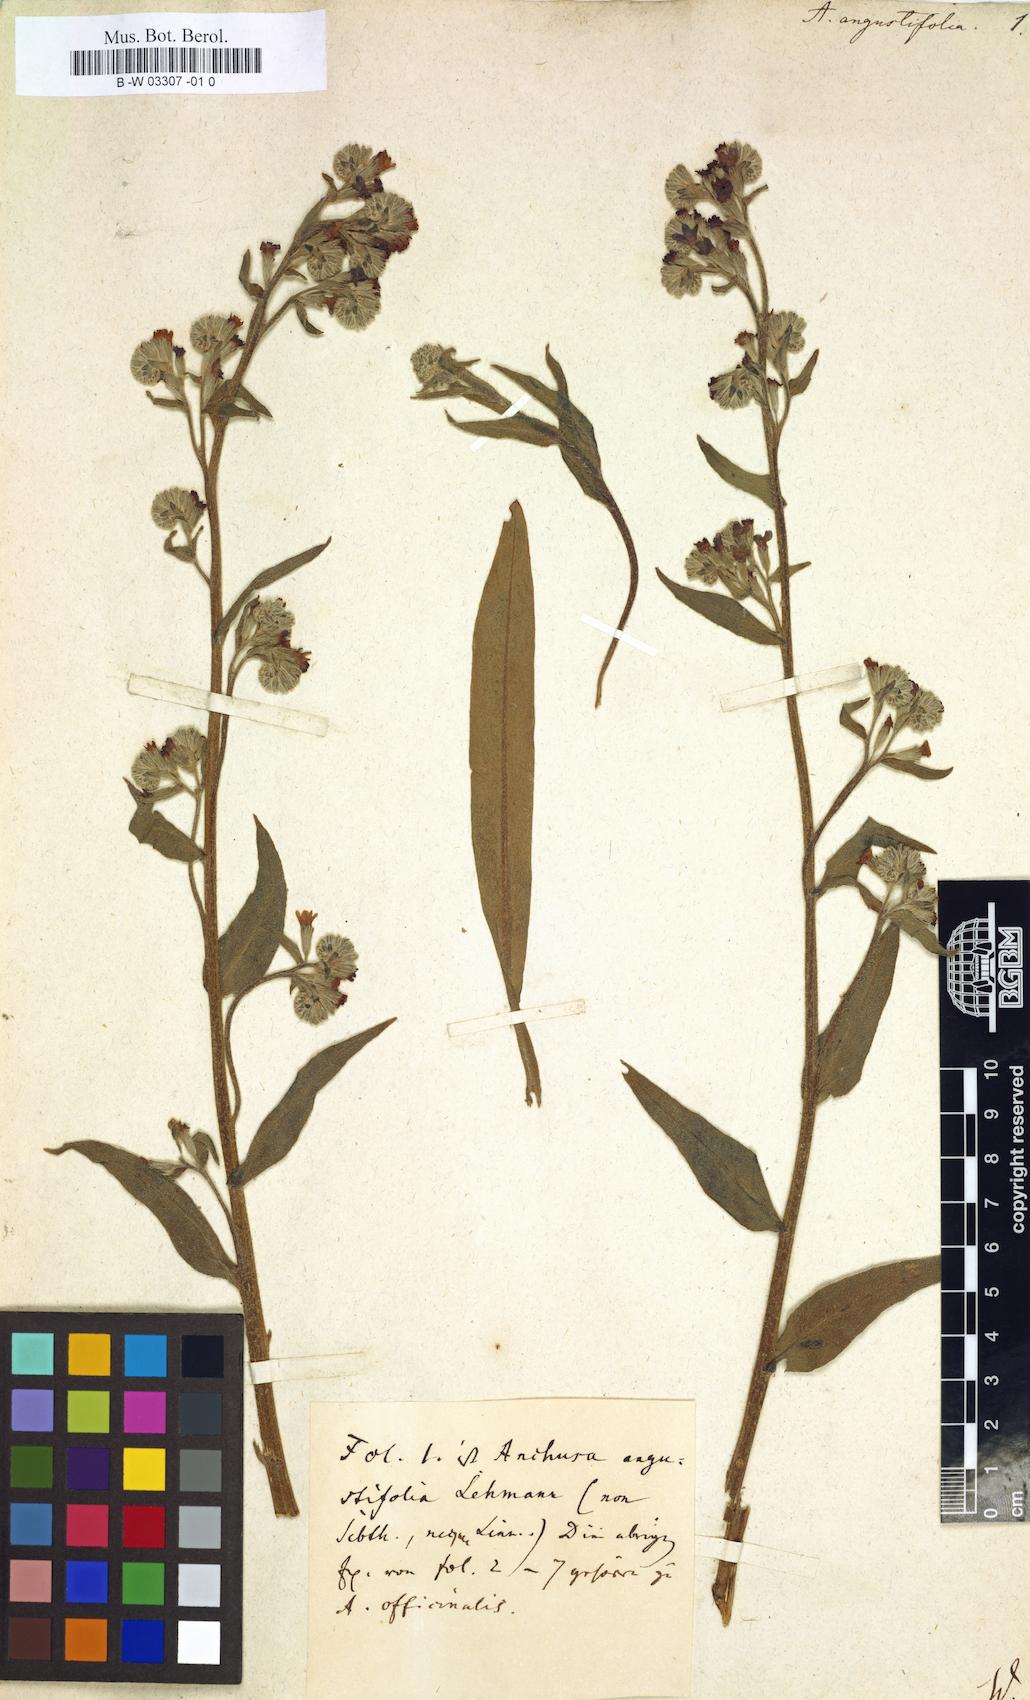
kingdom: Plantae
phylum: Tracheophyta
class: Magnoliopsida
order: Boraginales
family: Boraginaceae
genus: Anchusa
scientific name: Anchusa officinalis
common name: Alkanet
